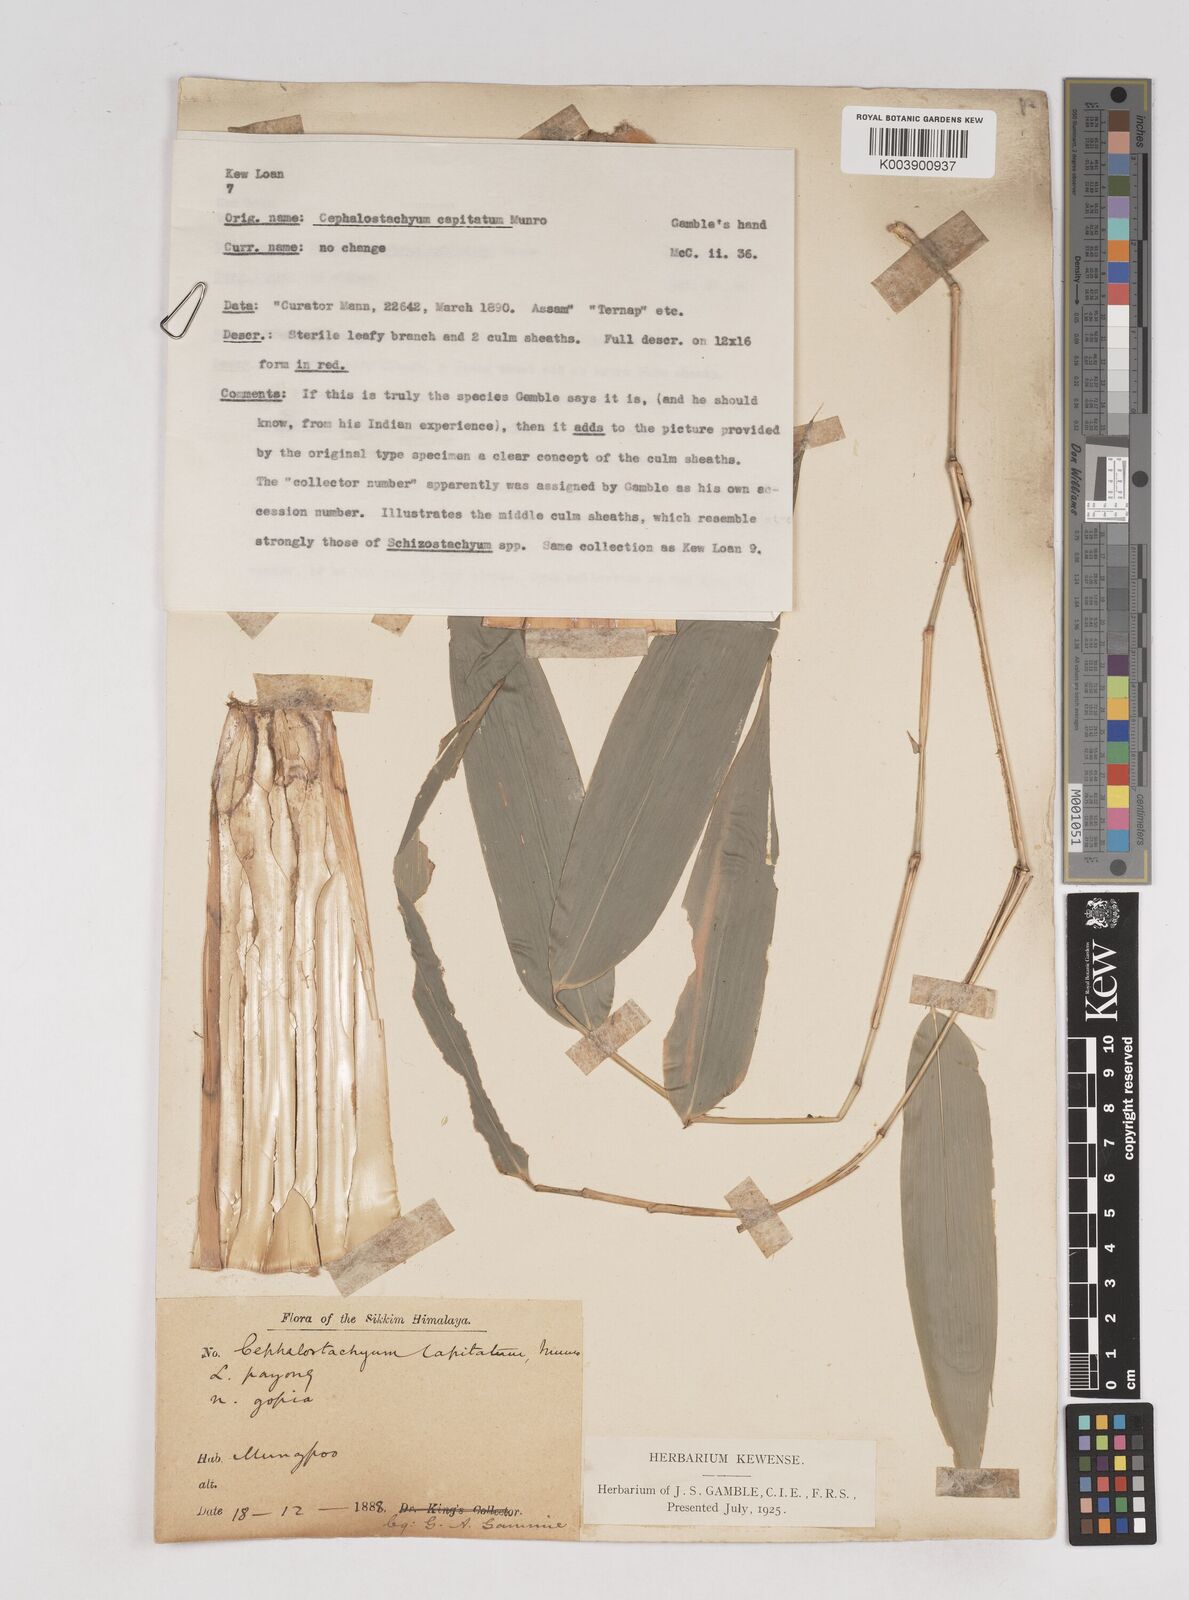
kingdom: Plantae
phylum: Tracheophyta
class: Liliopsida
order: Poales
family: Poaceae
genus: Cephalostachyum
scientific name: Cephalostachyum capitatum
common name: Hollow bamboo
